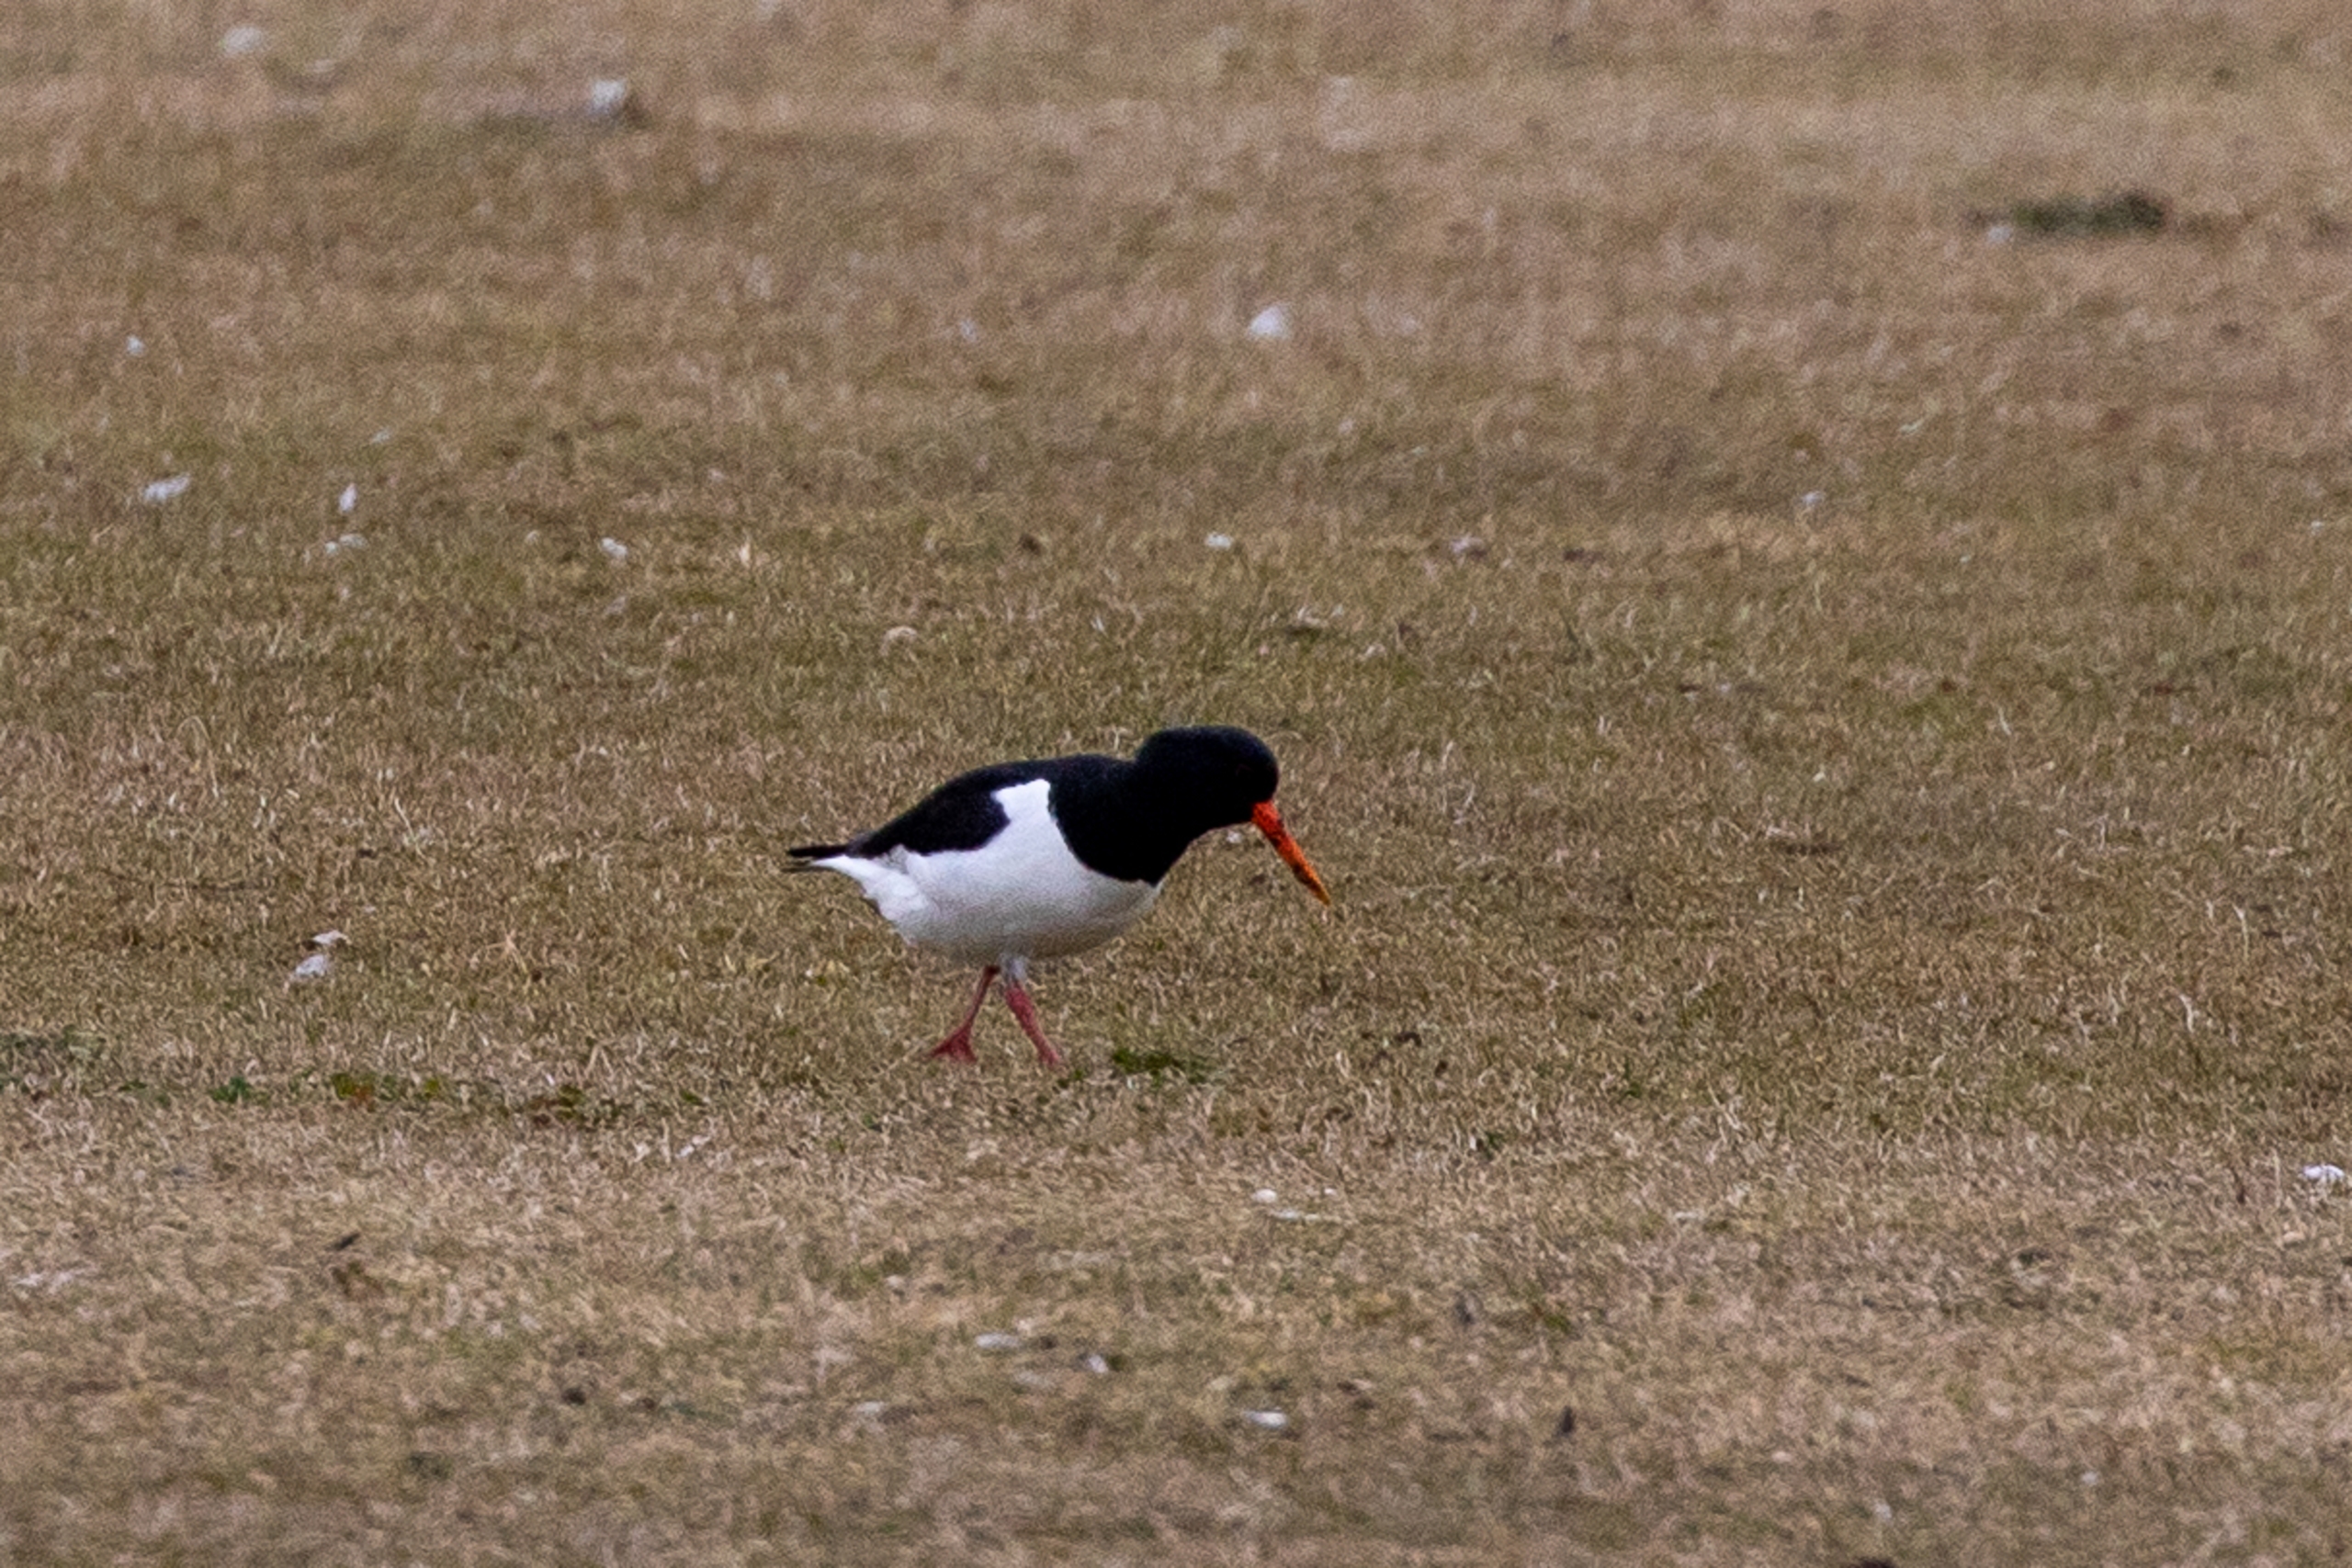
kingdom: Animalia
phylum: Chordata
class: Aves
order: Charadriiformes
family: Haematopodidae
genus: Haematopus
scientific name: Haematopus ostralegus
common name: Strandskade
